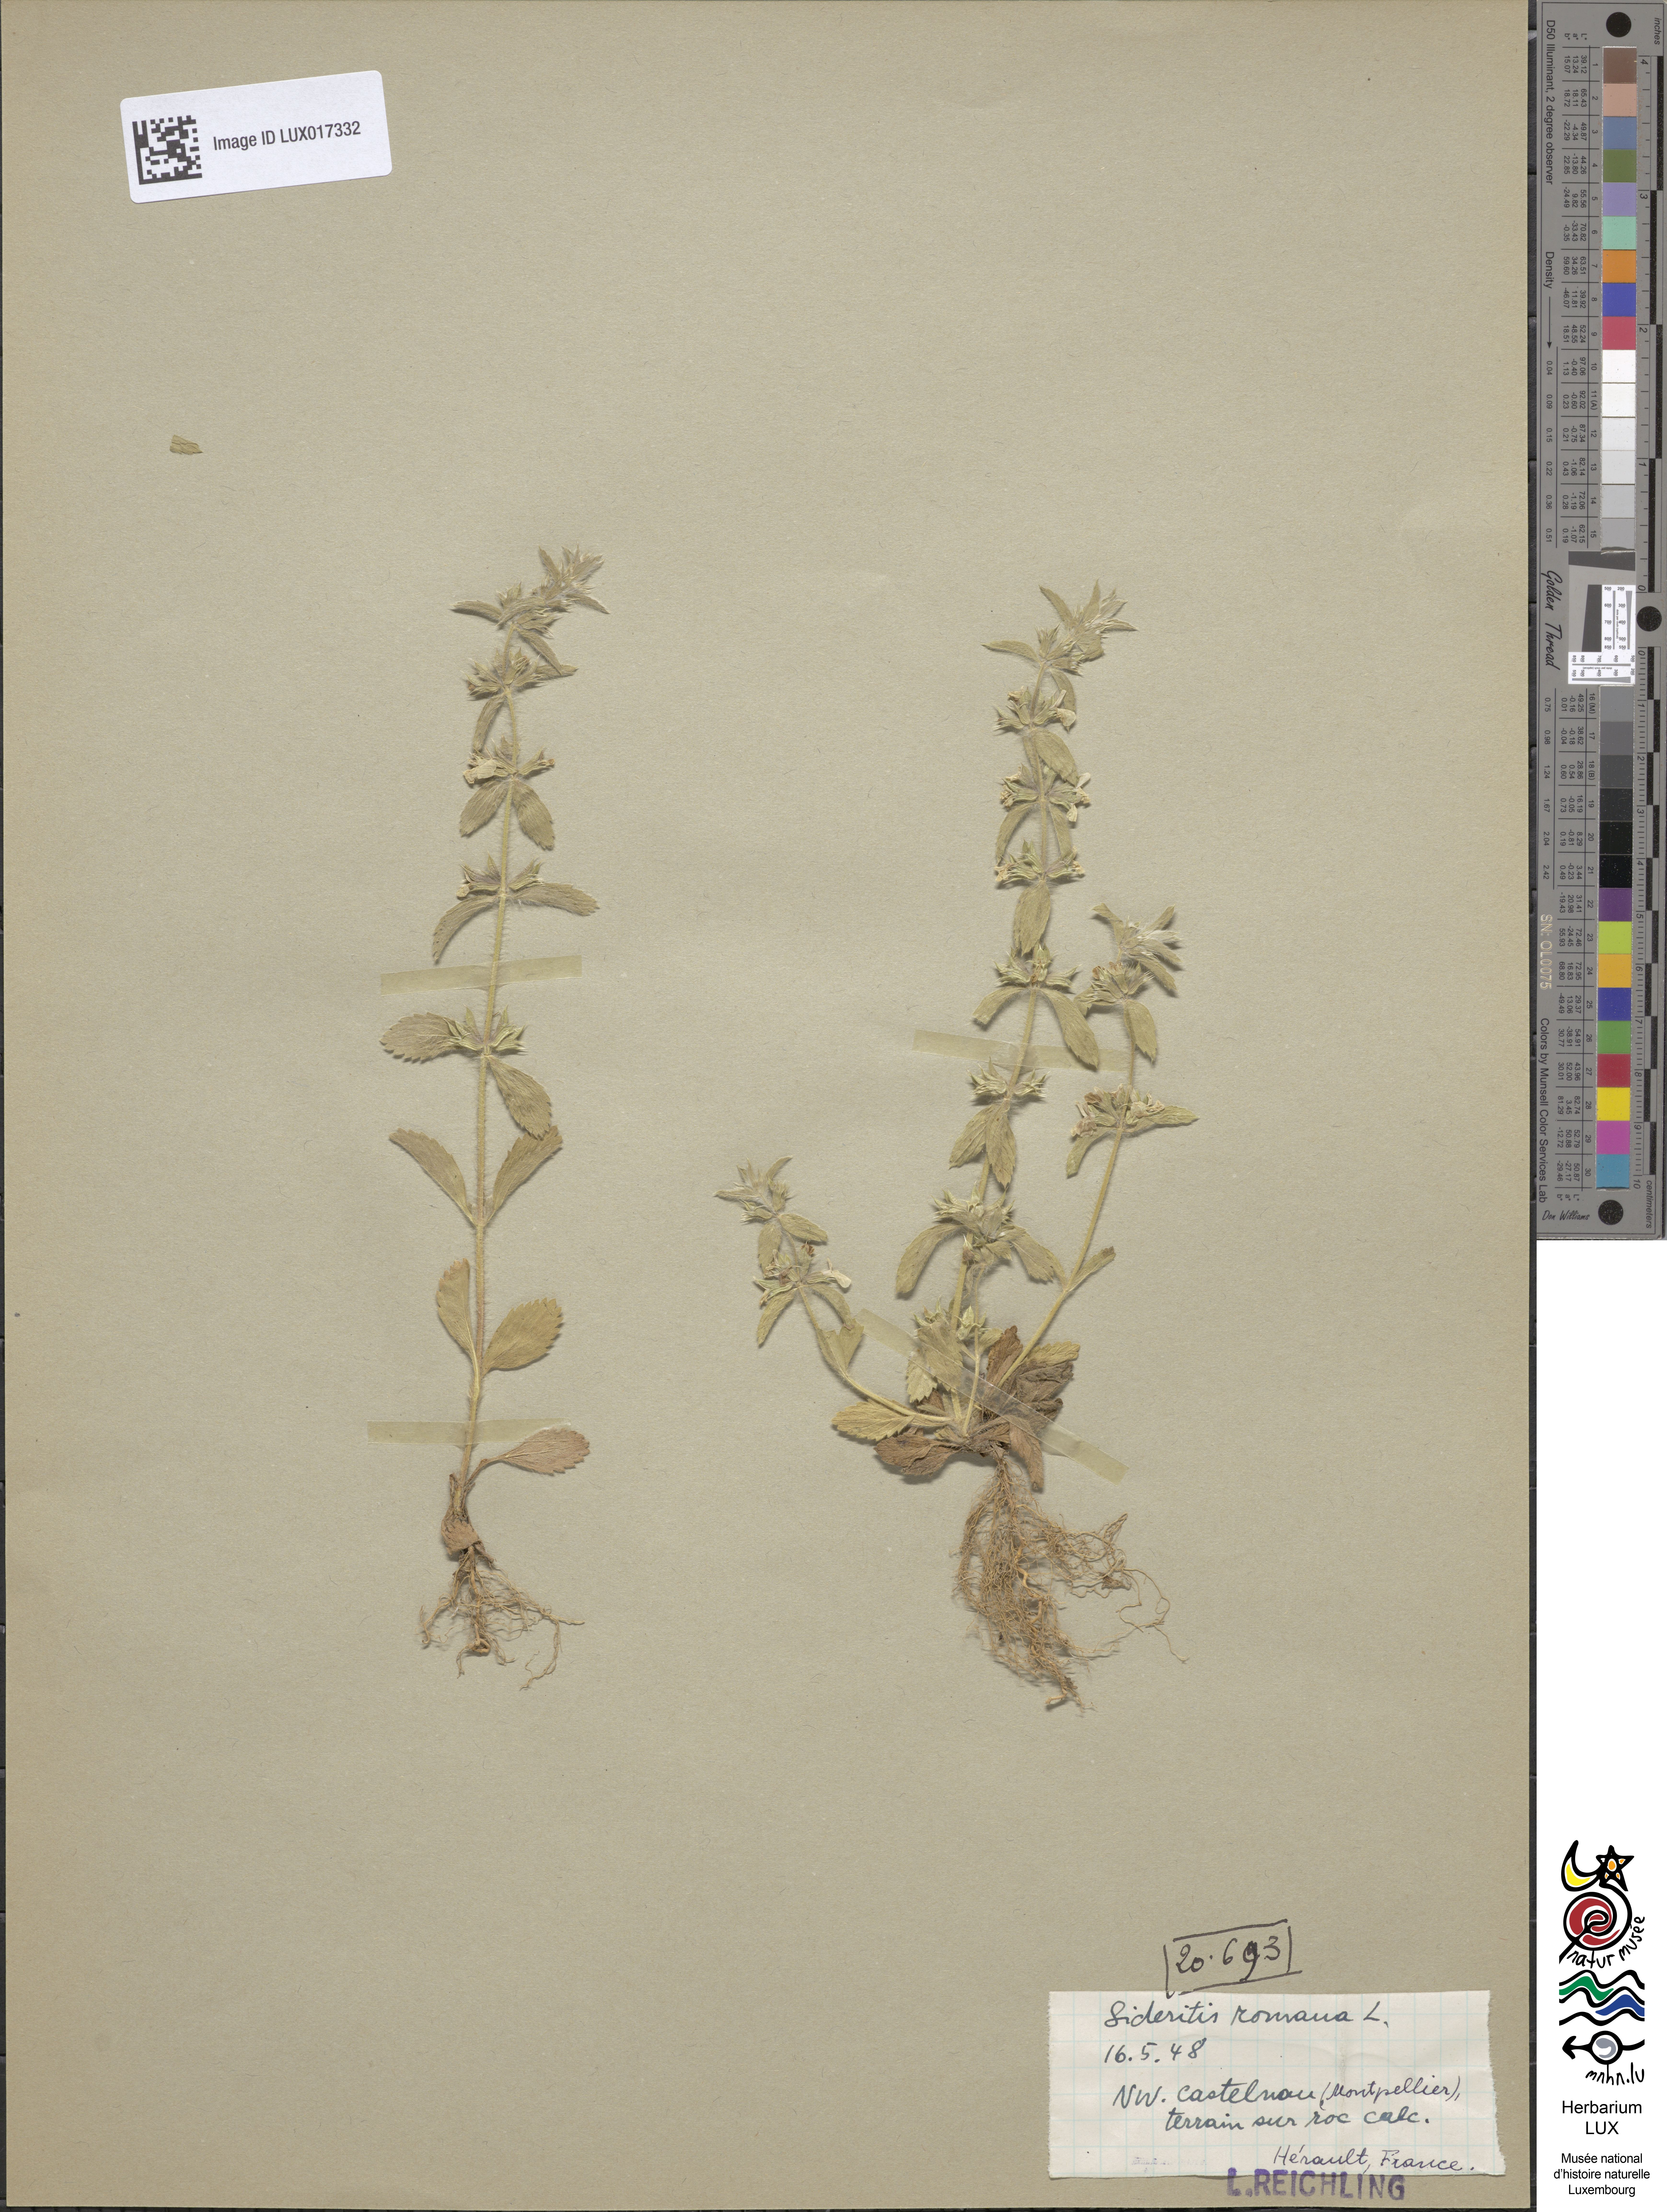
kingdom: Plantae
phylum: Tracheophyta
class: Magnoliopsida
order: Lamiales
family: Lamiaceae
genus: Sideritis
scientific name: Sideritis romana
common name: Simplebeak ironwort
